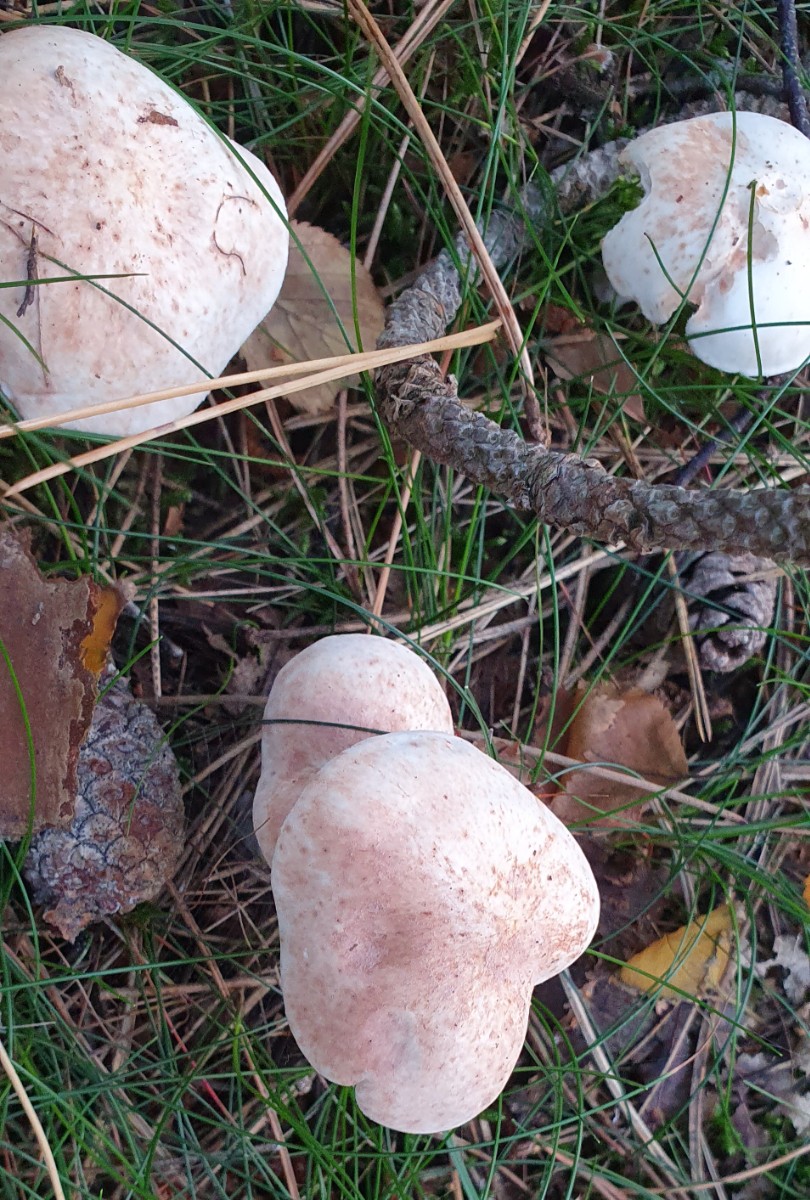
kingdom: Fungi
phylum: Basidiomycota
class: Agaricomycetes
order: Agaricales
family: Omphalotaceae
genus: Rhodocollybia
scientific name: Rhodocollybia maculata
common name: plettet fladhat
